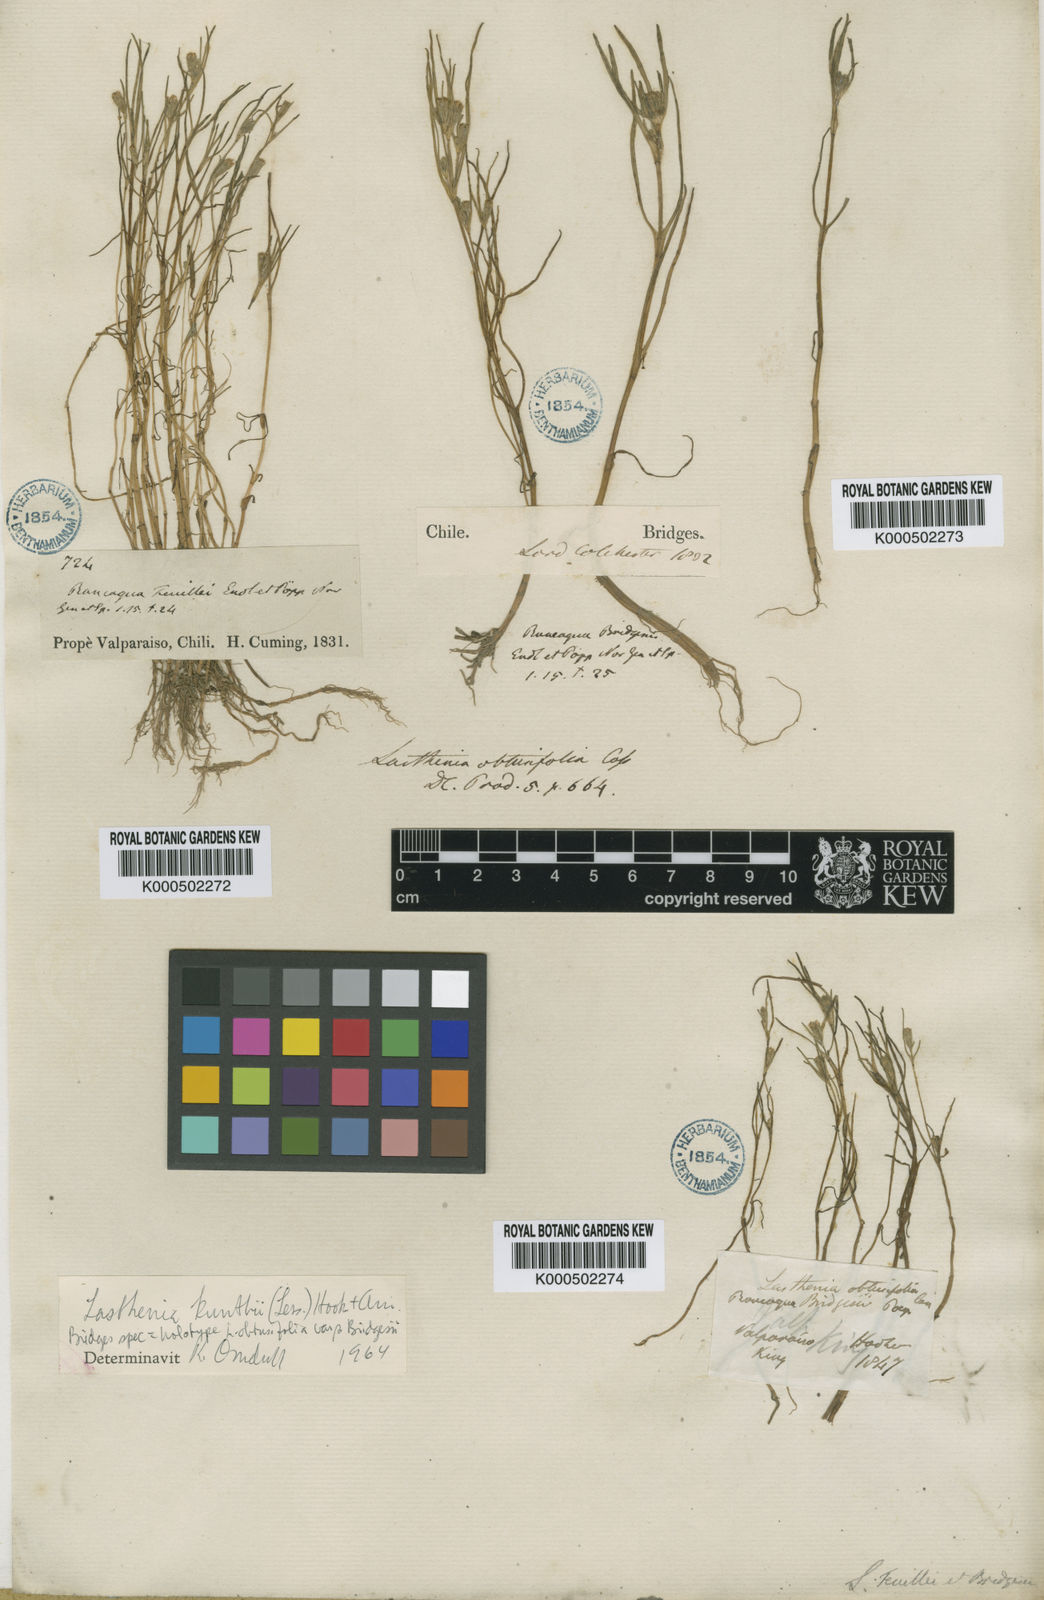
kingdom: Plantae
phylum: Tracheophyta
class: Magnoliopsida
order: Asterales
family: Asteraceae
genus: Lasthenia
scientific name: Lasthenia kunthii
